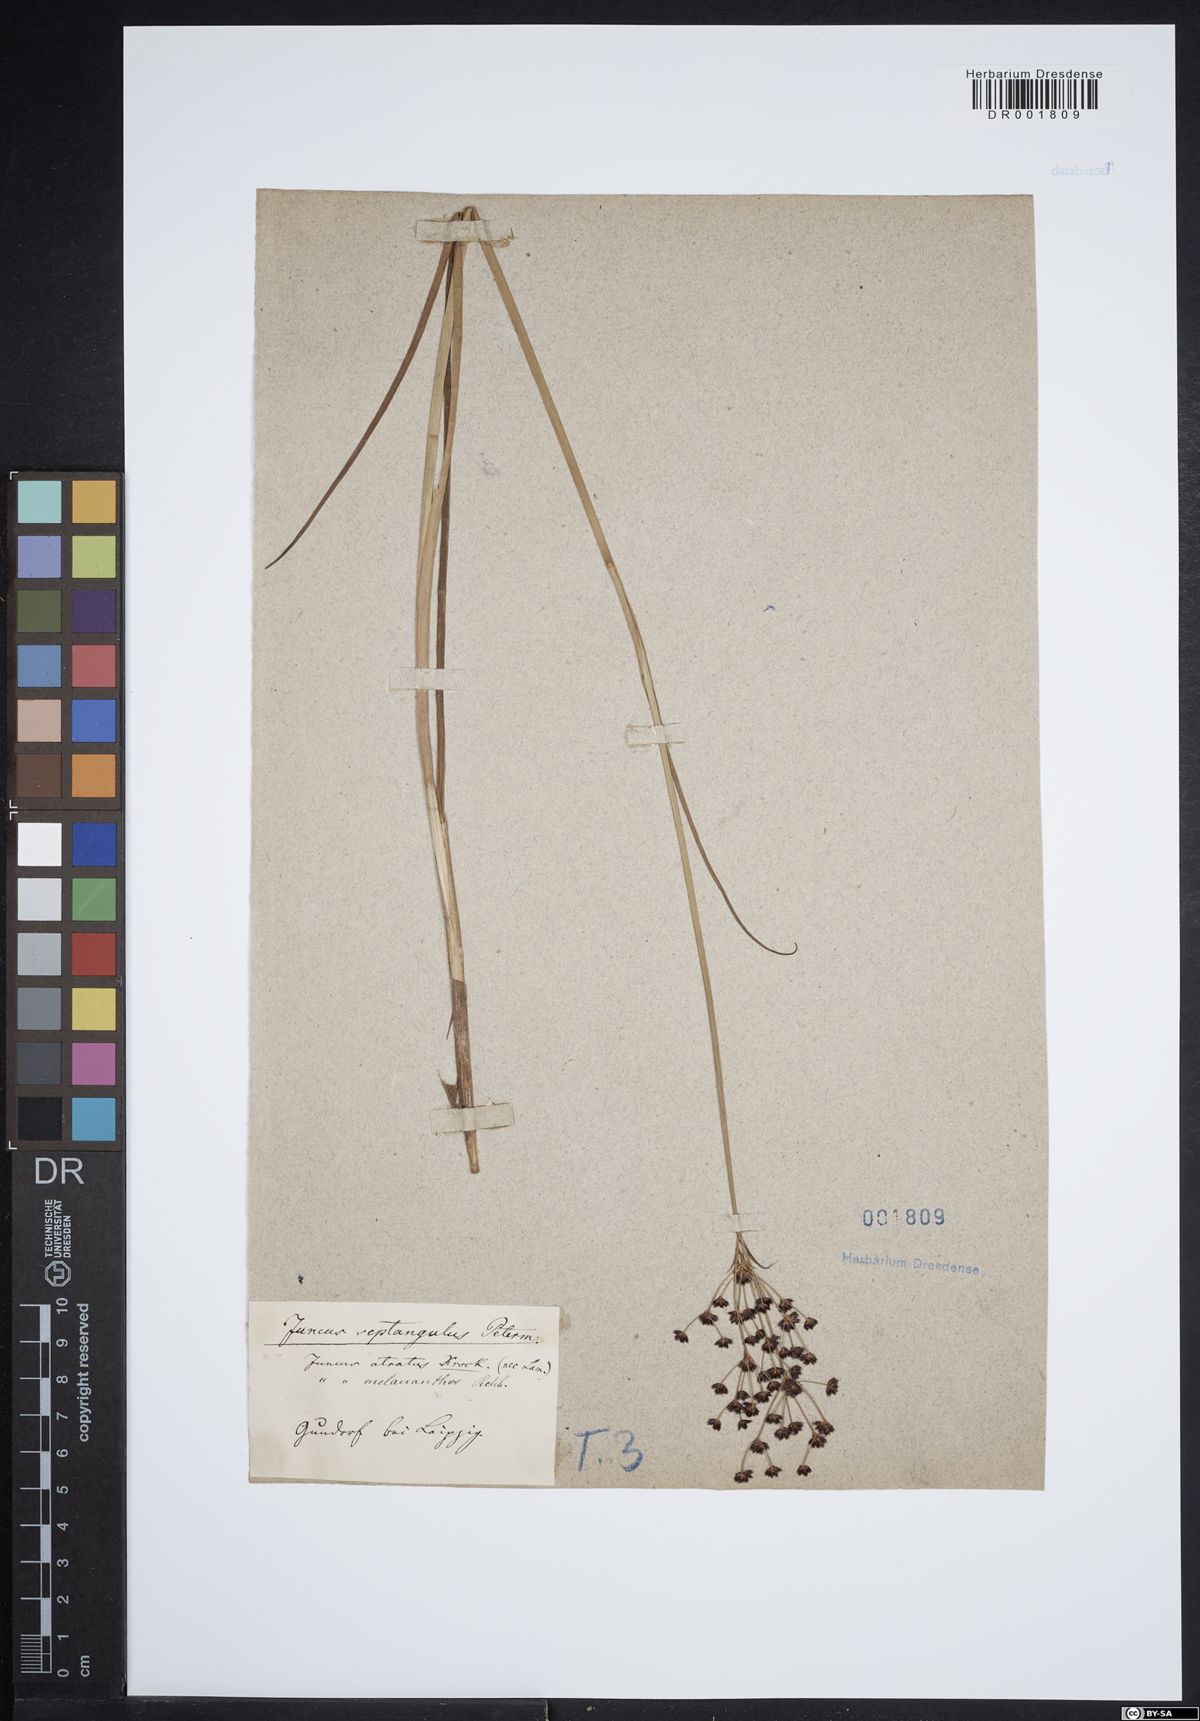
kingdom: Plantae
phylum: Tracheophyta
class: Liliopsida
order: Poales
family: Juncaceae
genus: Juncus
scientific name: Juncus atratus
